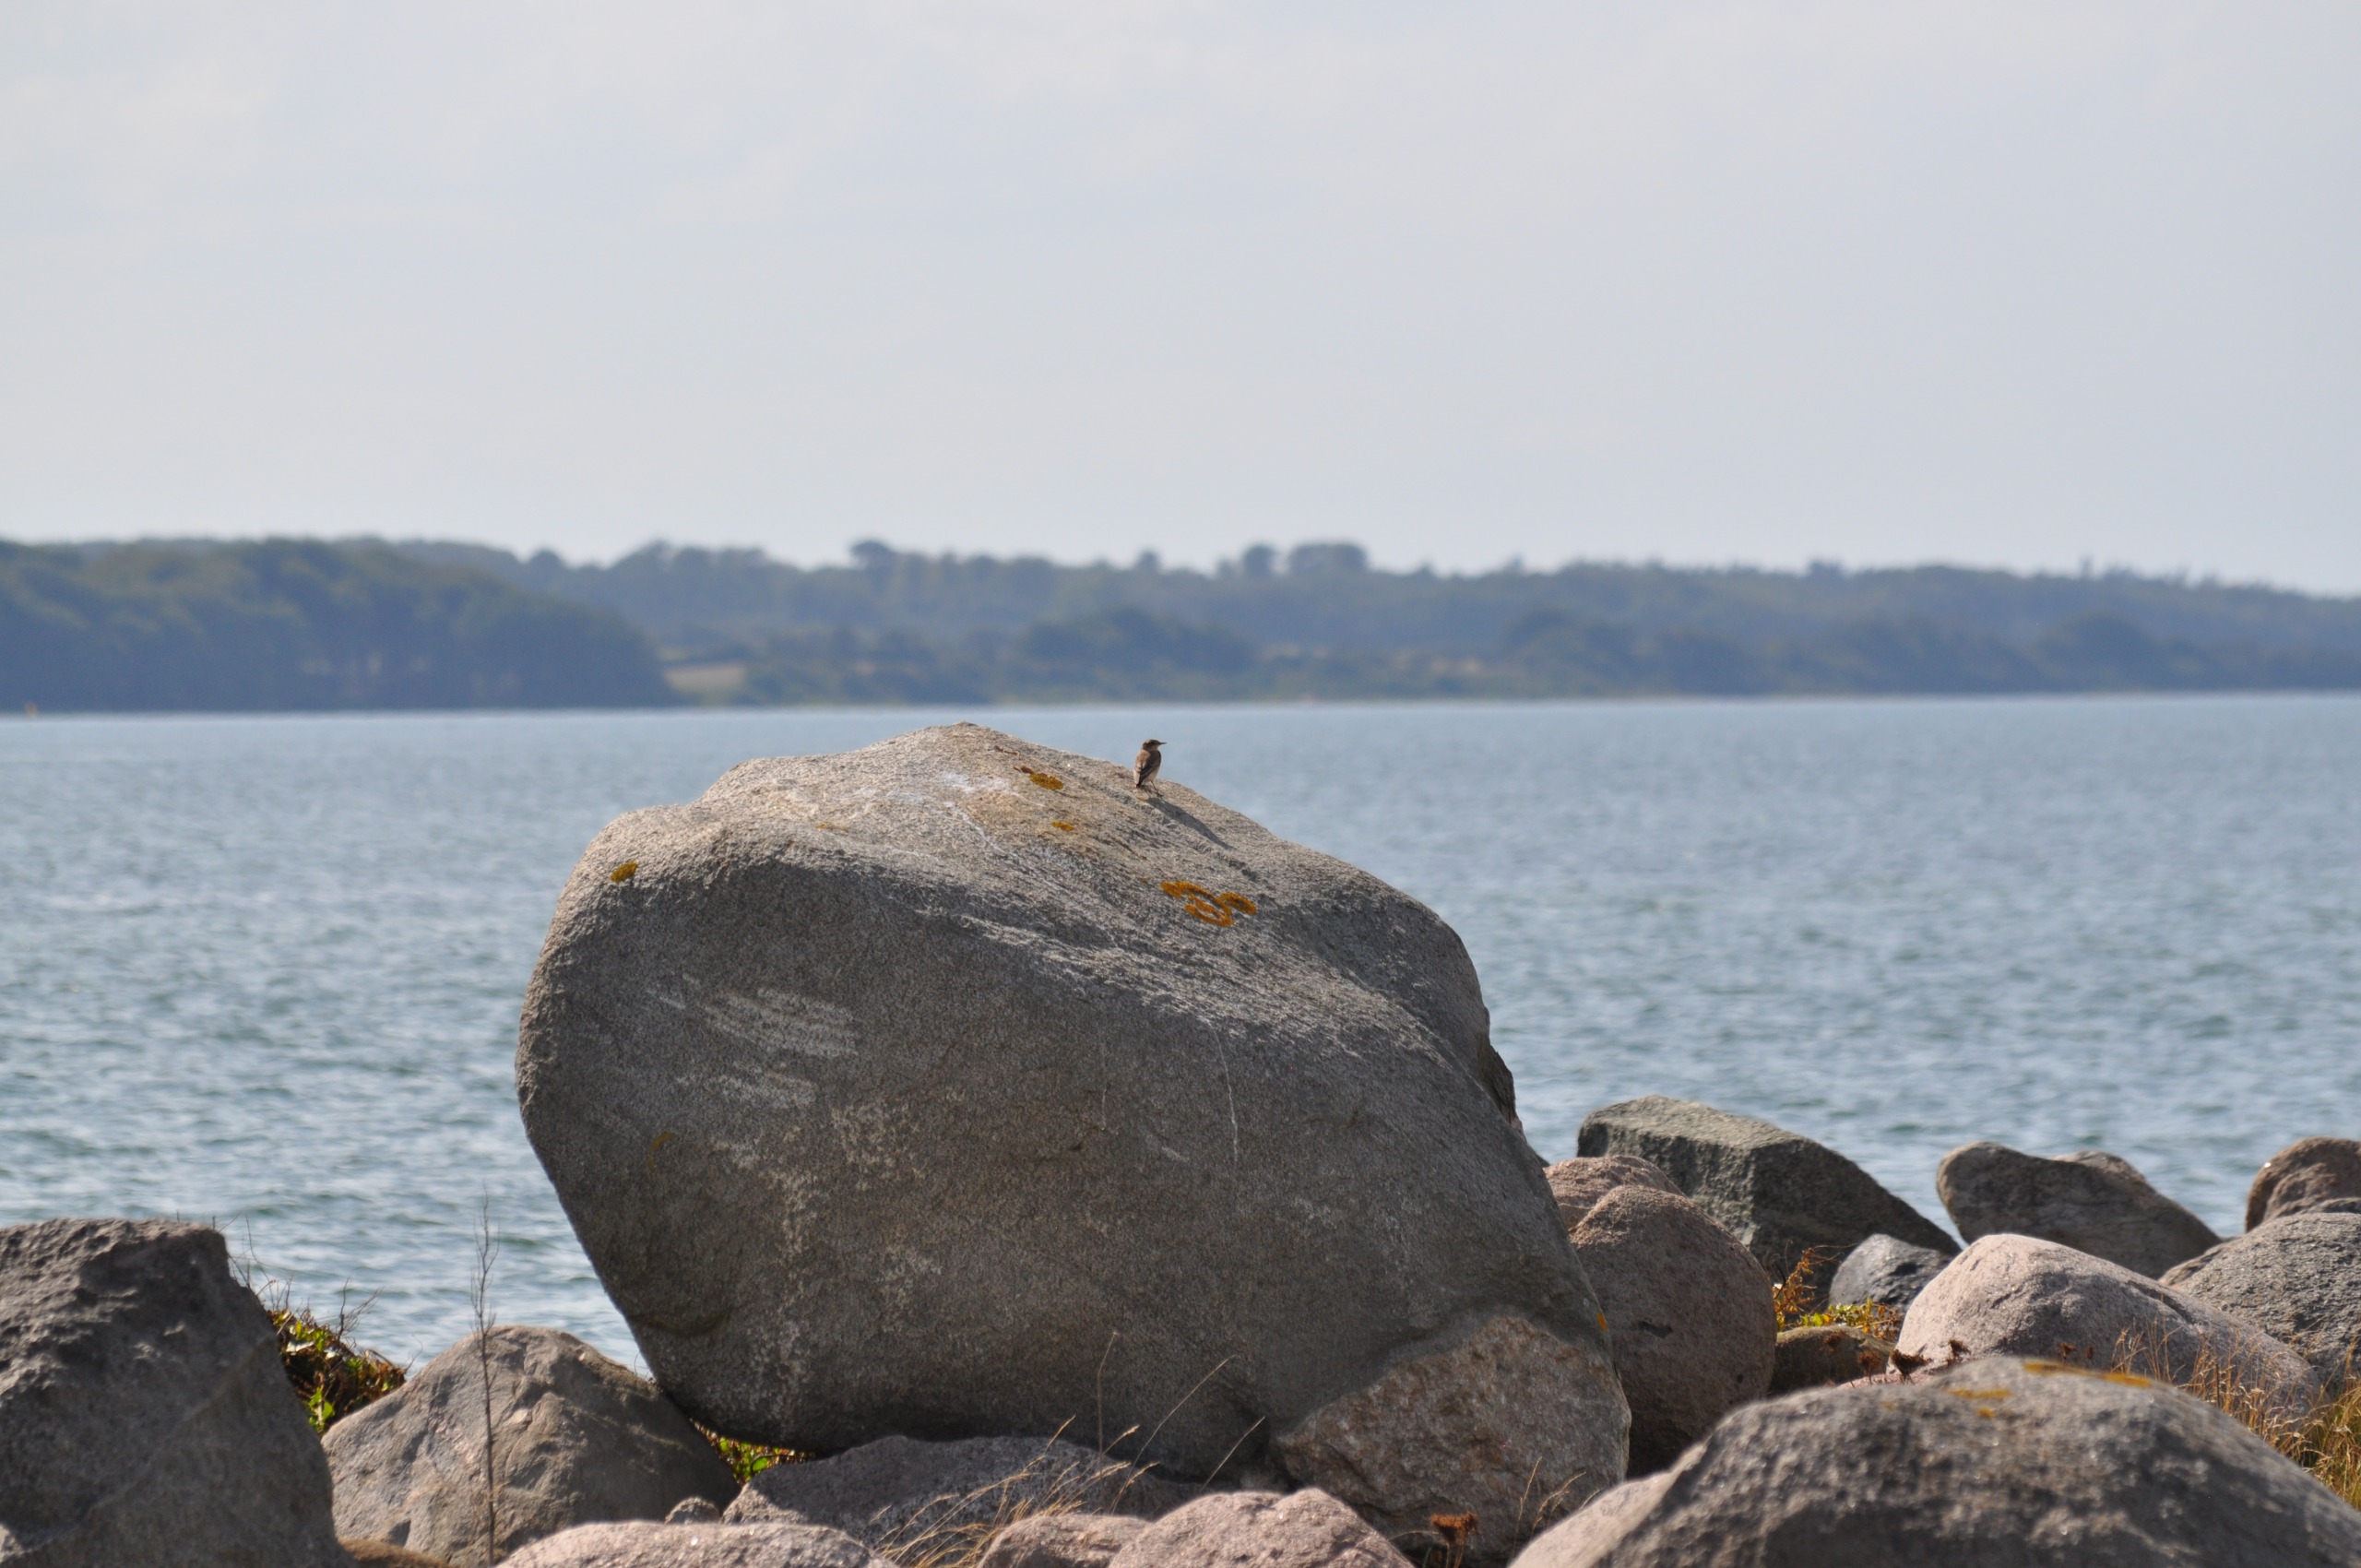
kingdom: Animalia
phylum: Chordata
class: Aves
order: Passeriformes
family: Muscicapidae
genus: Oenanthe
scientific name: Oenanthe oenanthe
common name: Stenpikker
